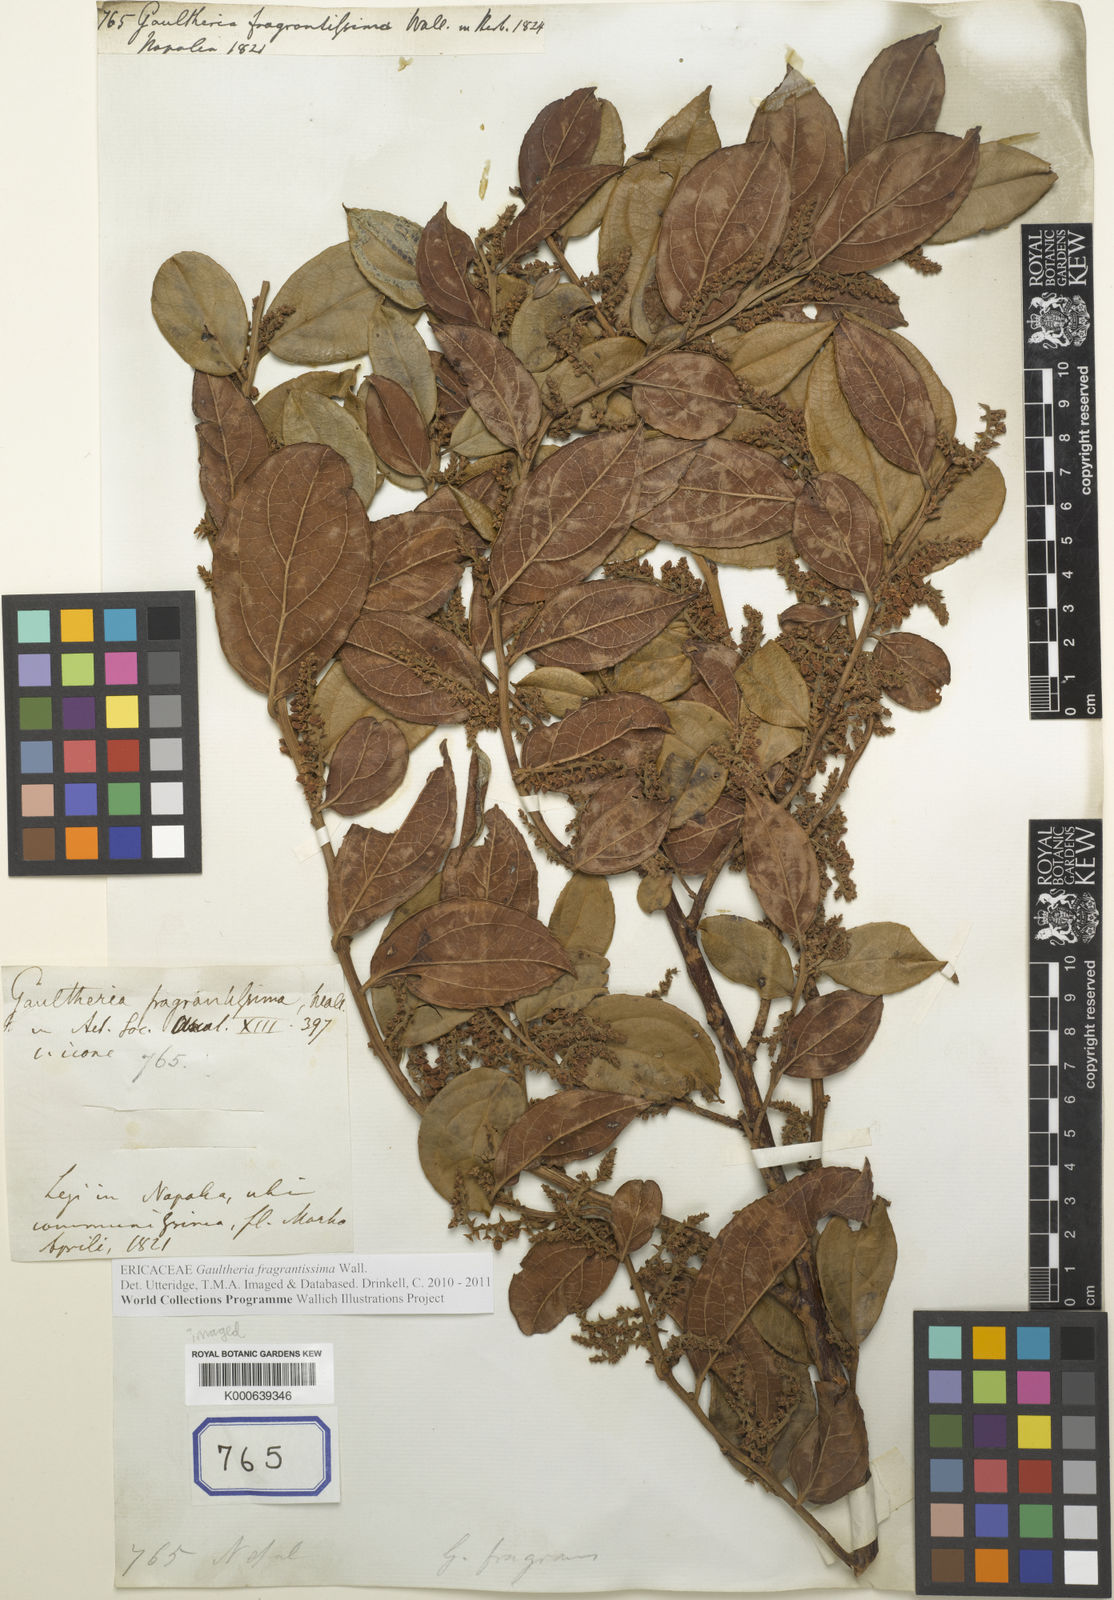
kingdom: Plantae
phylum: Tracheophyta
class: Magnoliopsida
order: Ericales
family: Ericaceae
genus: Gaultheria
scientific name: Gaultheria fragrantissima
